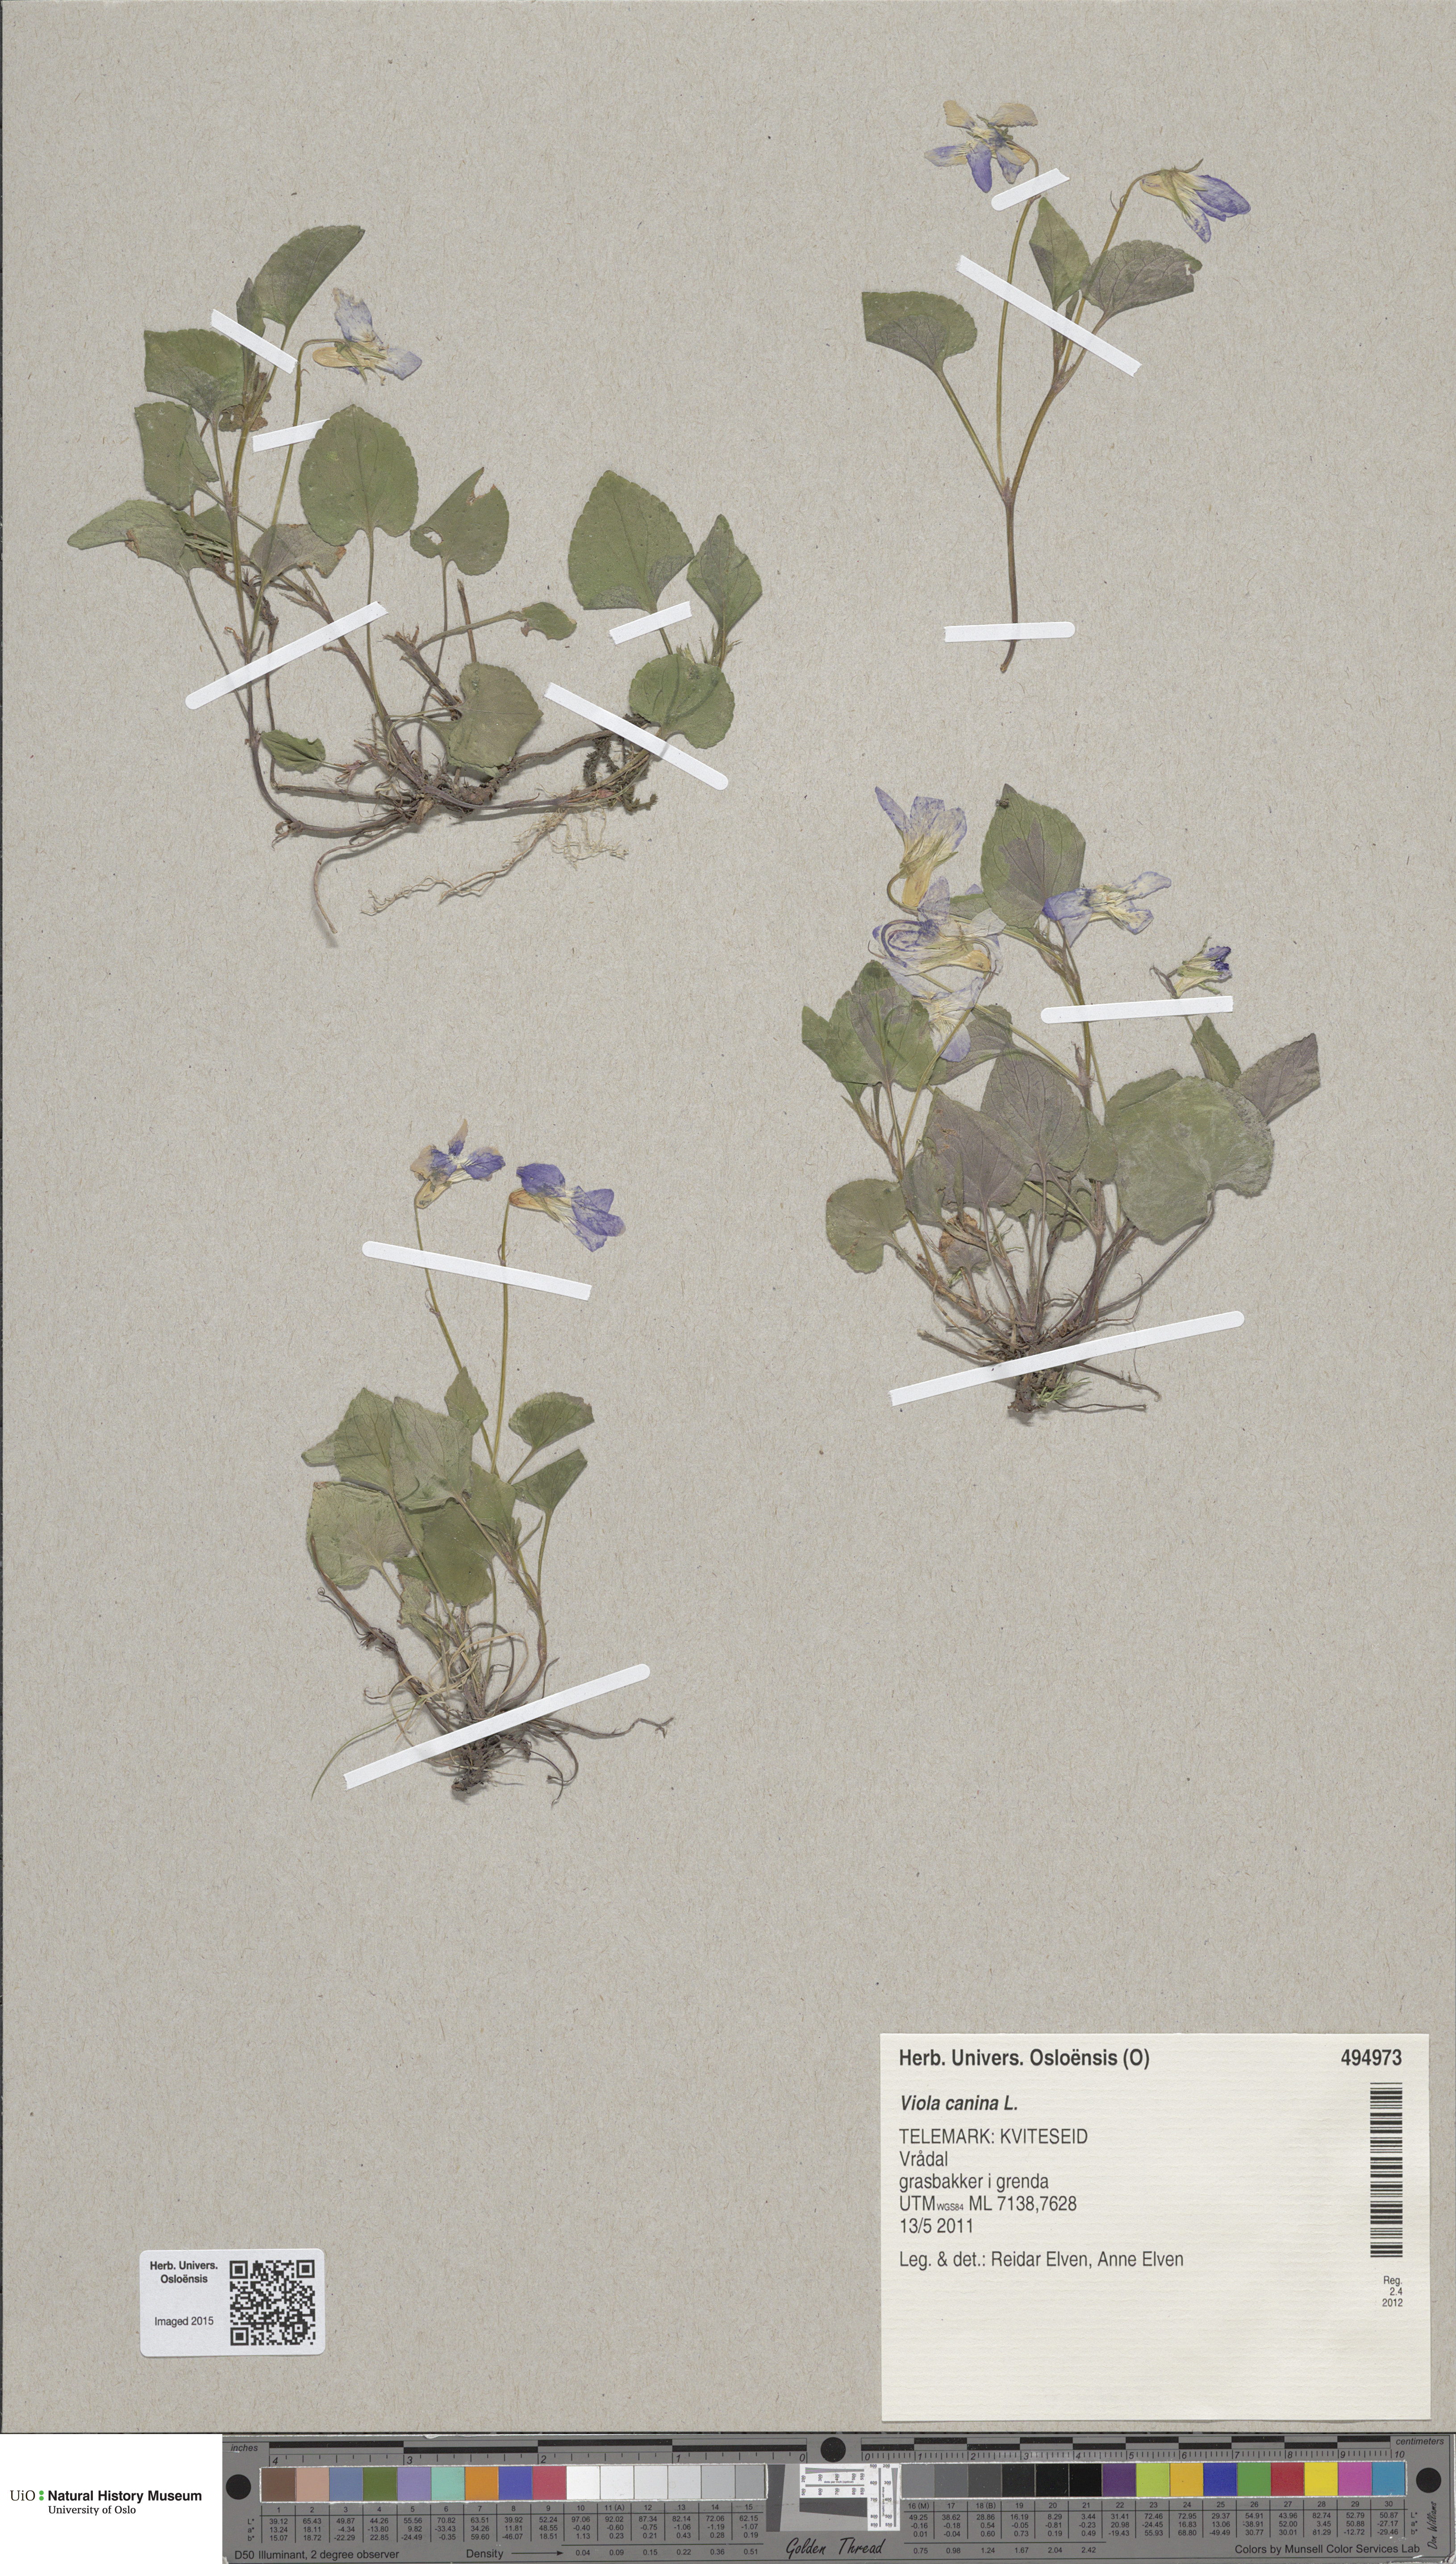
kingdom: Plantae
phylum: Tracheophyta
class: Magnoliopsida
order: Malpighiales
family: Violaceae
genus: Viola
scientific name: Viola canina
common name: Heath dog-violet
